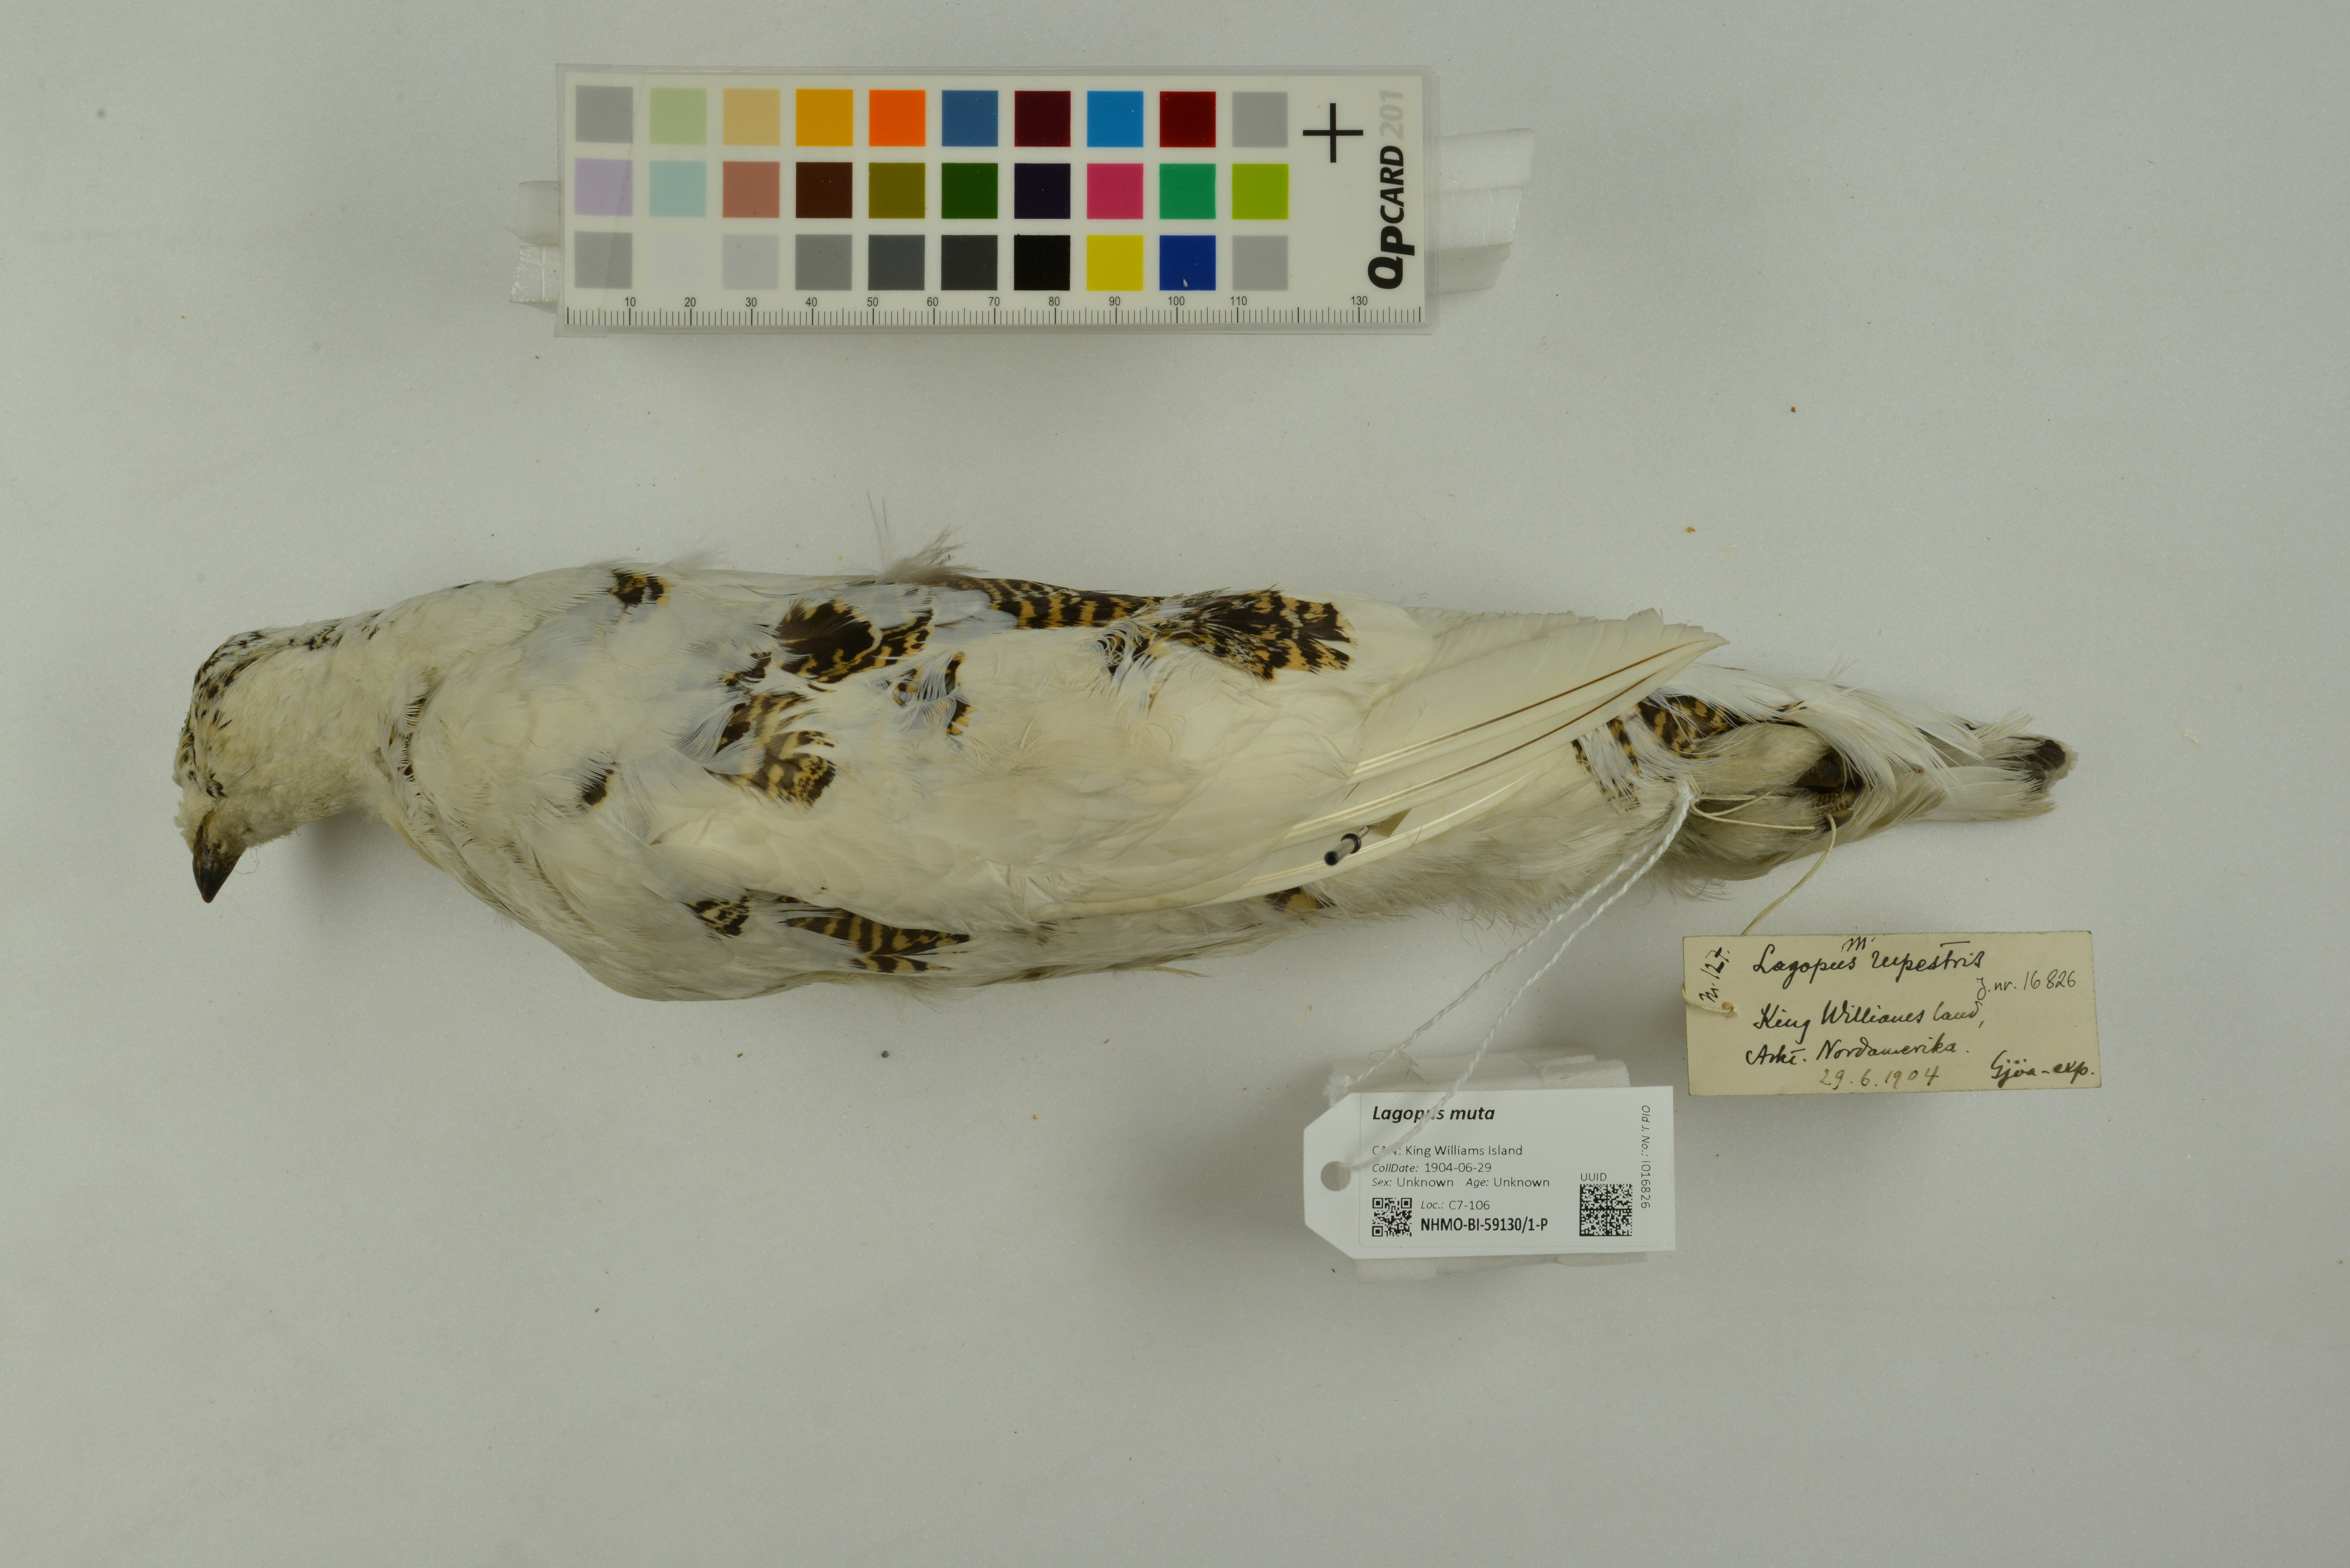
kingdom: Animalia
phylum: Chordata
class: Aves
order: Galliformes
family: Phasianidae
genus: Lagopus
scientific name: Lagopus muta
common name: Rock ptarmigan
